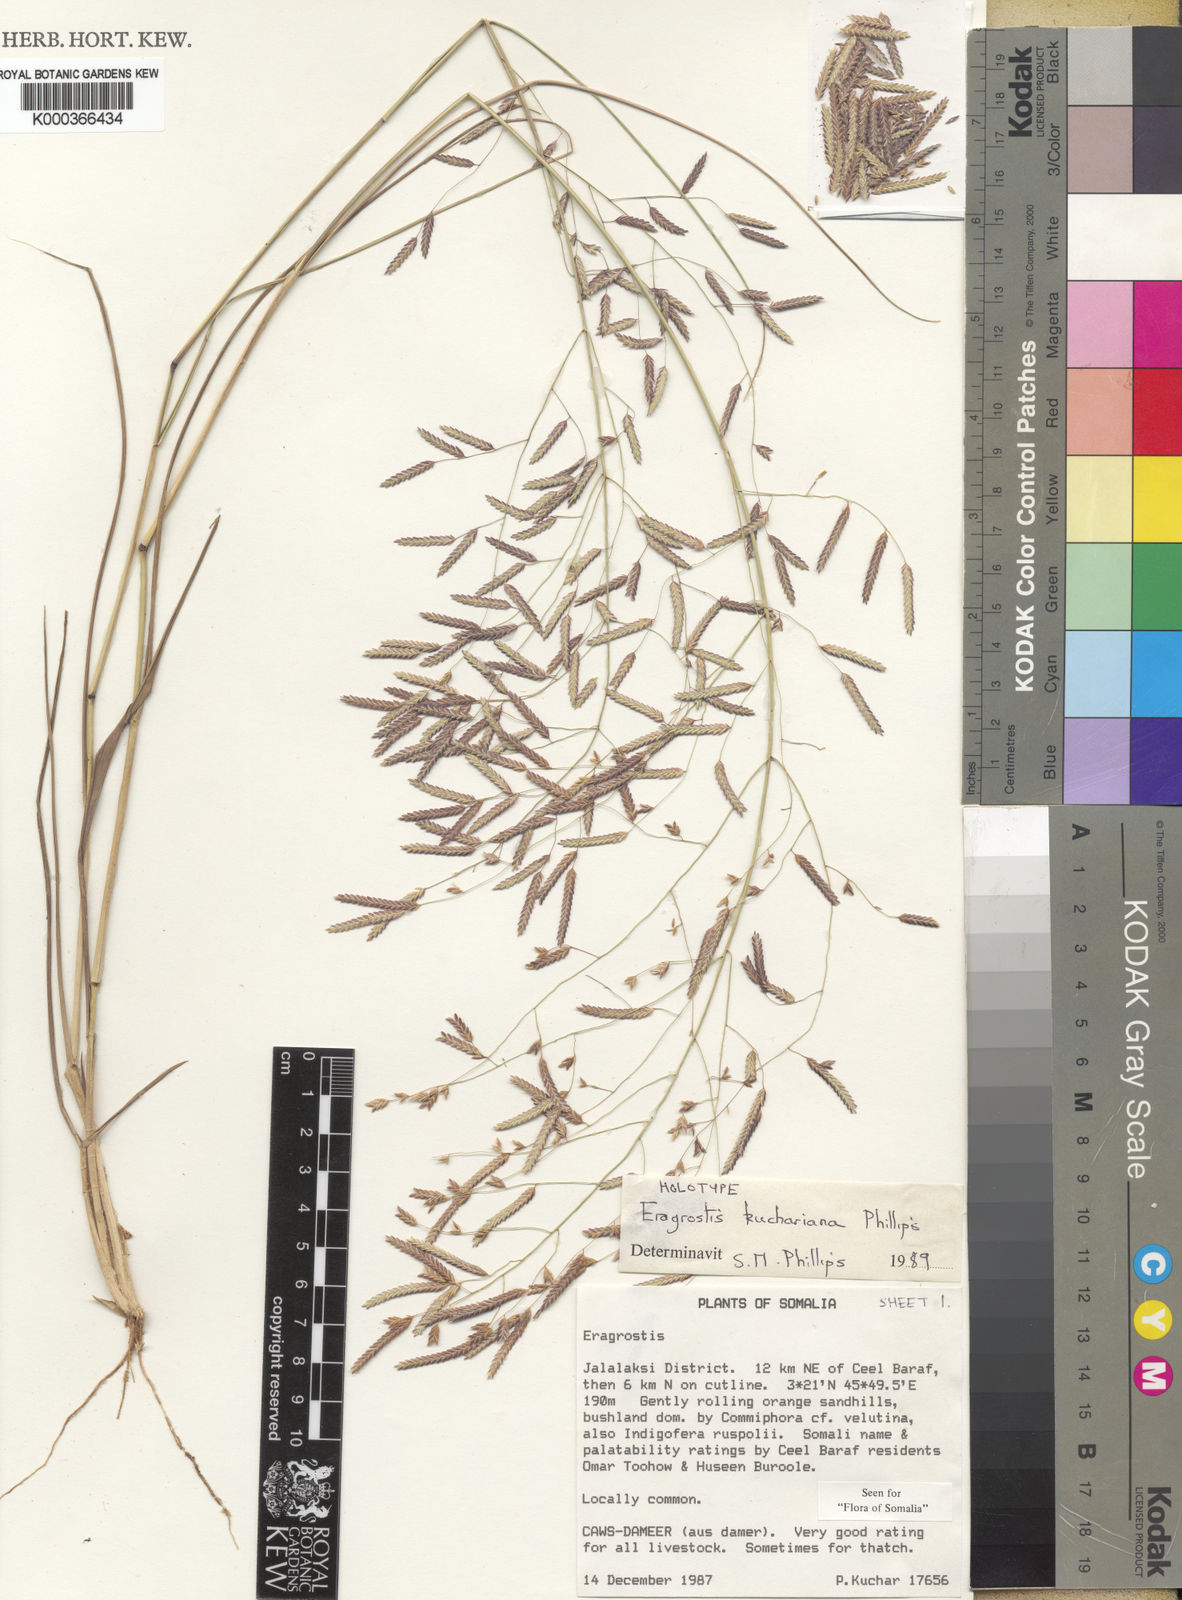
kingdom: Plantae
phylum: Tracheophyta
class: Liliopsida
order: Poales
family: Poaceae
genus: Eragrostis
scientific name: Eragrostis kuchariana
